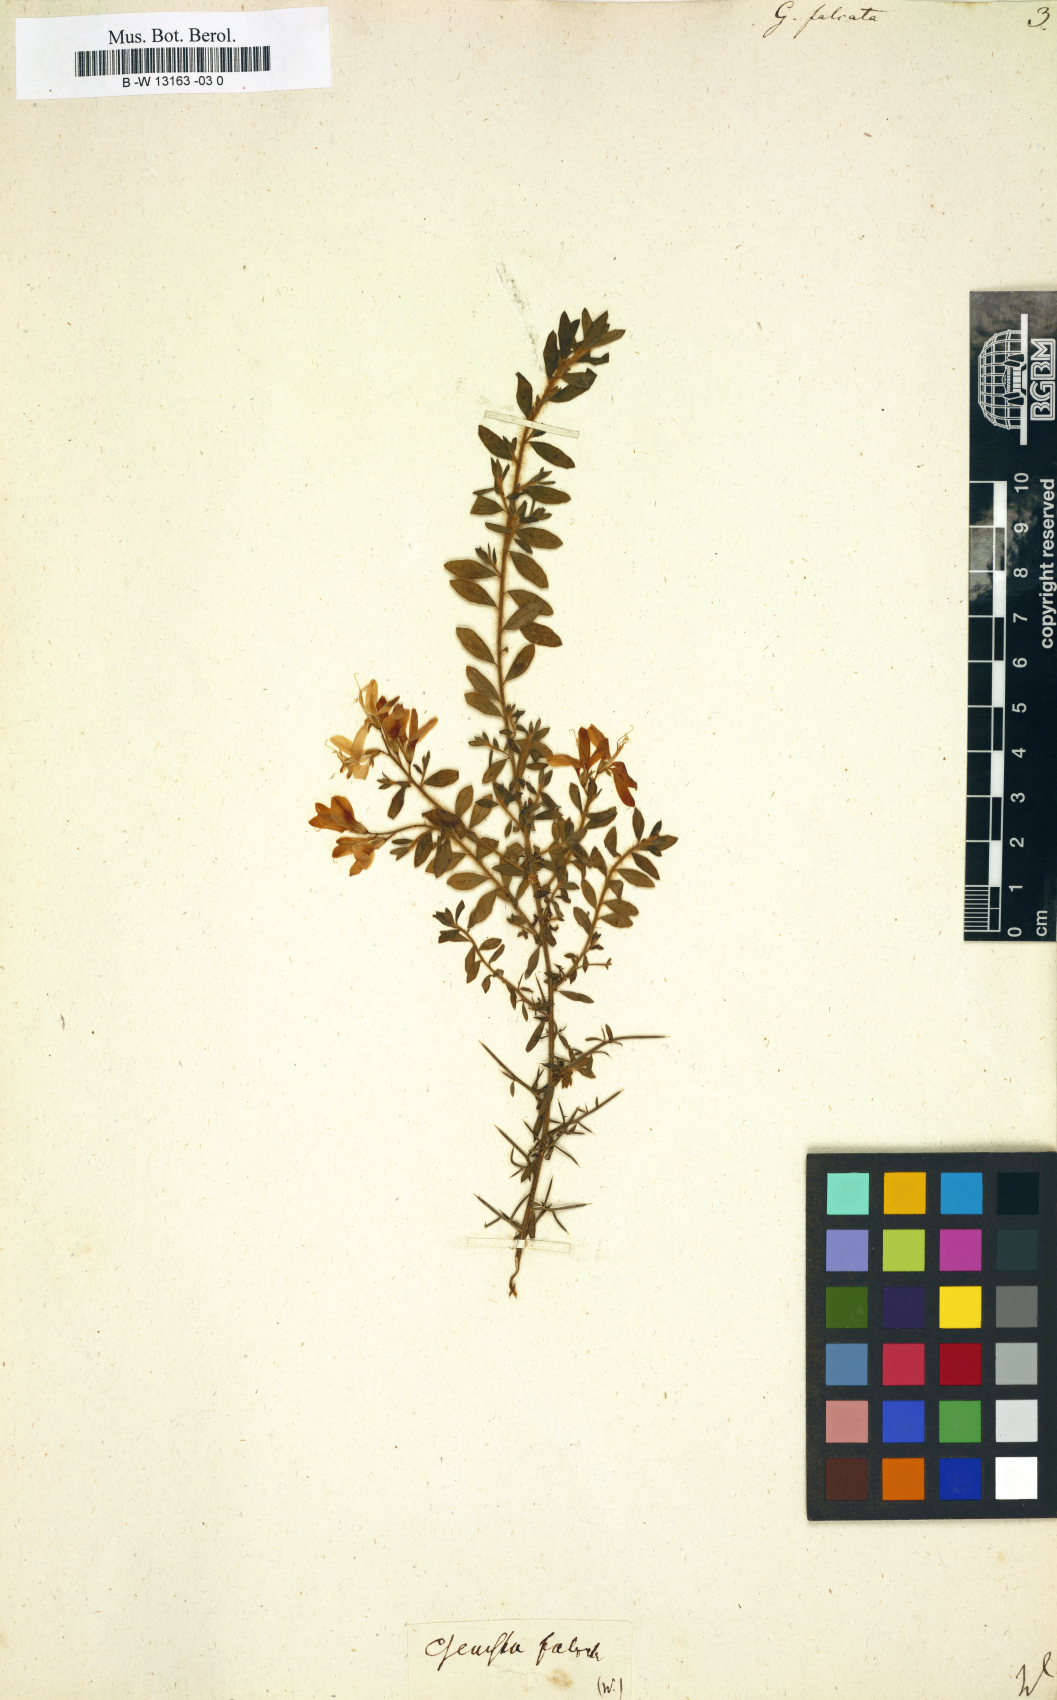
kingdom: Plantae
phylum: Tracheophyta
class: Magnoliopsida
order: Fabales
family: Fabaceae
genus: Genista
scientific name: Genista falcata
